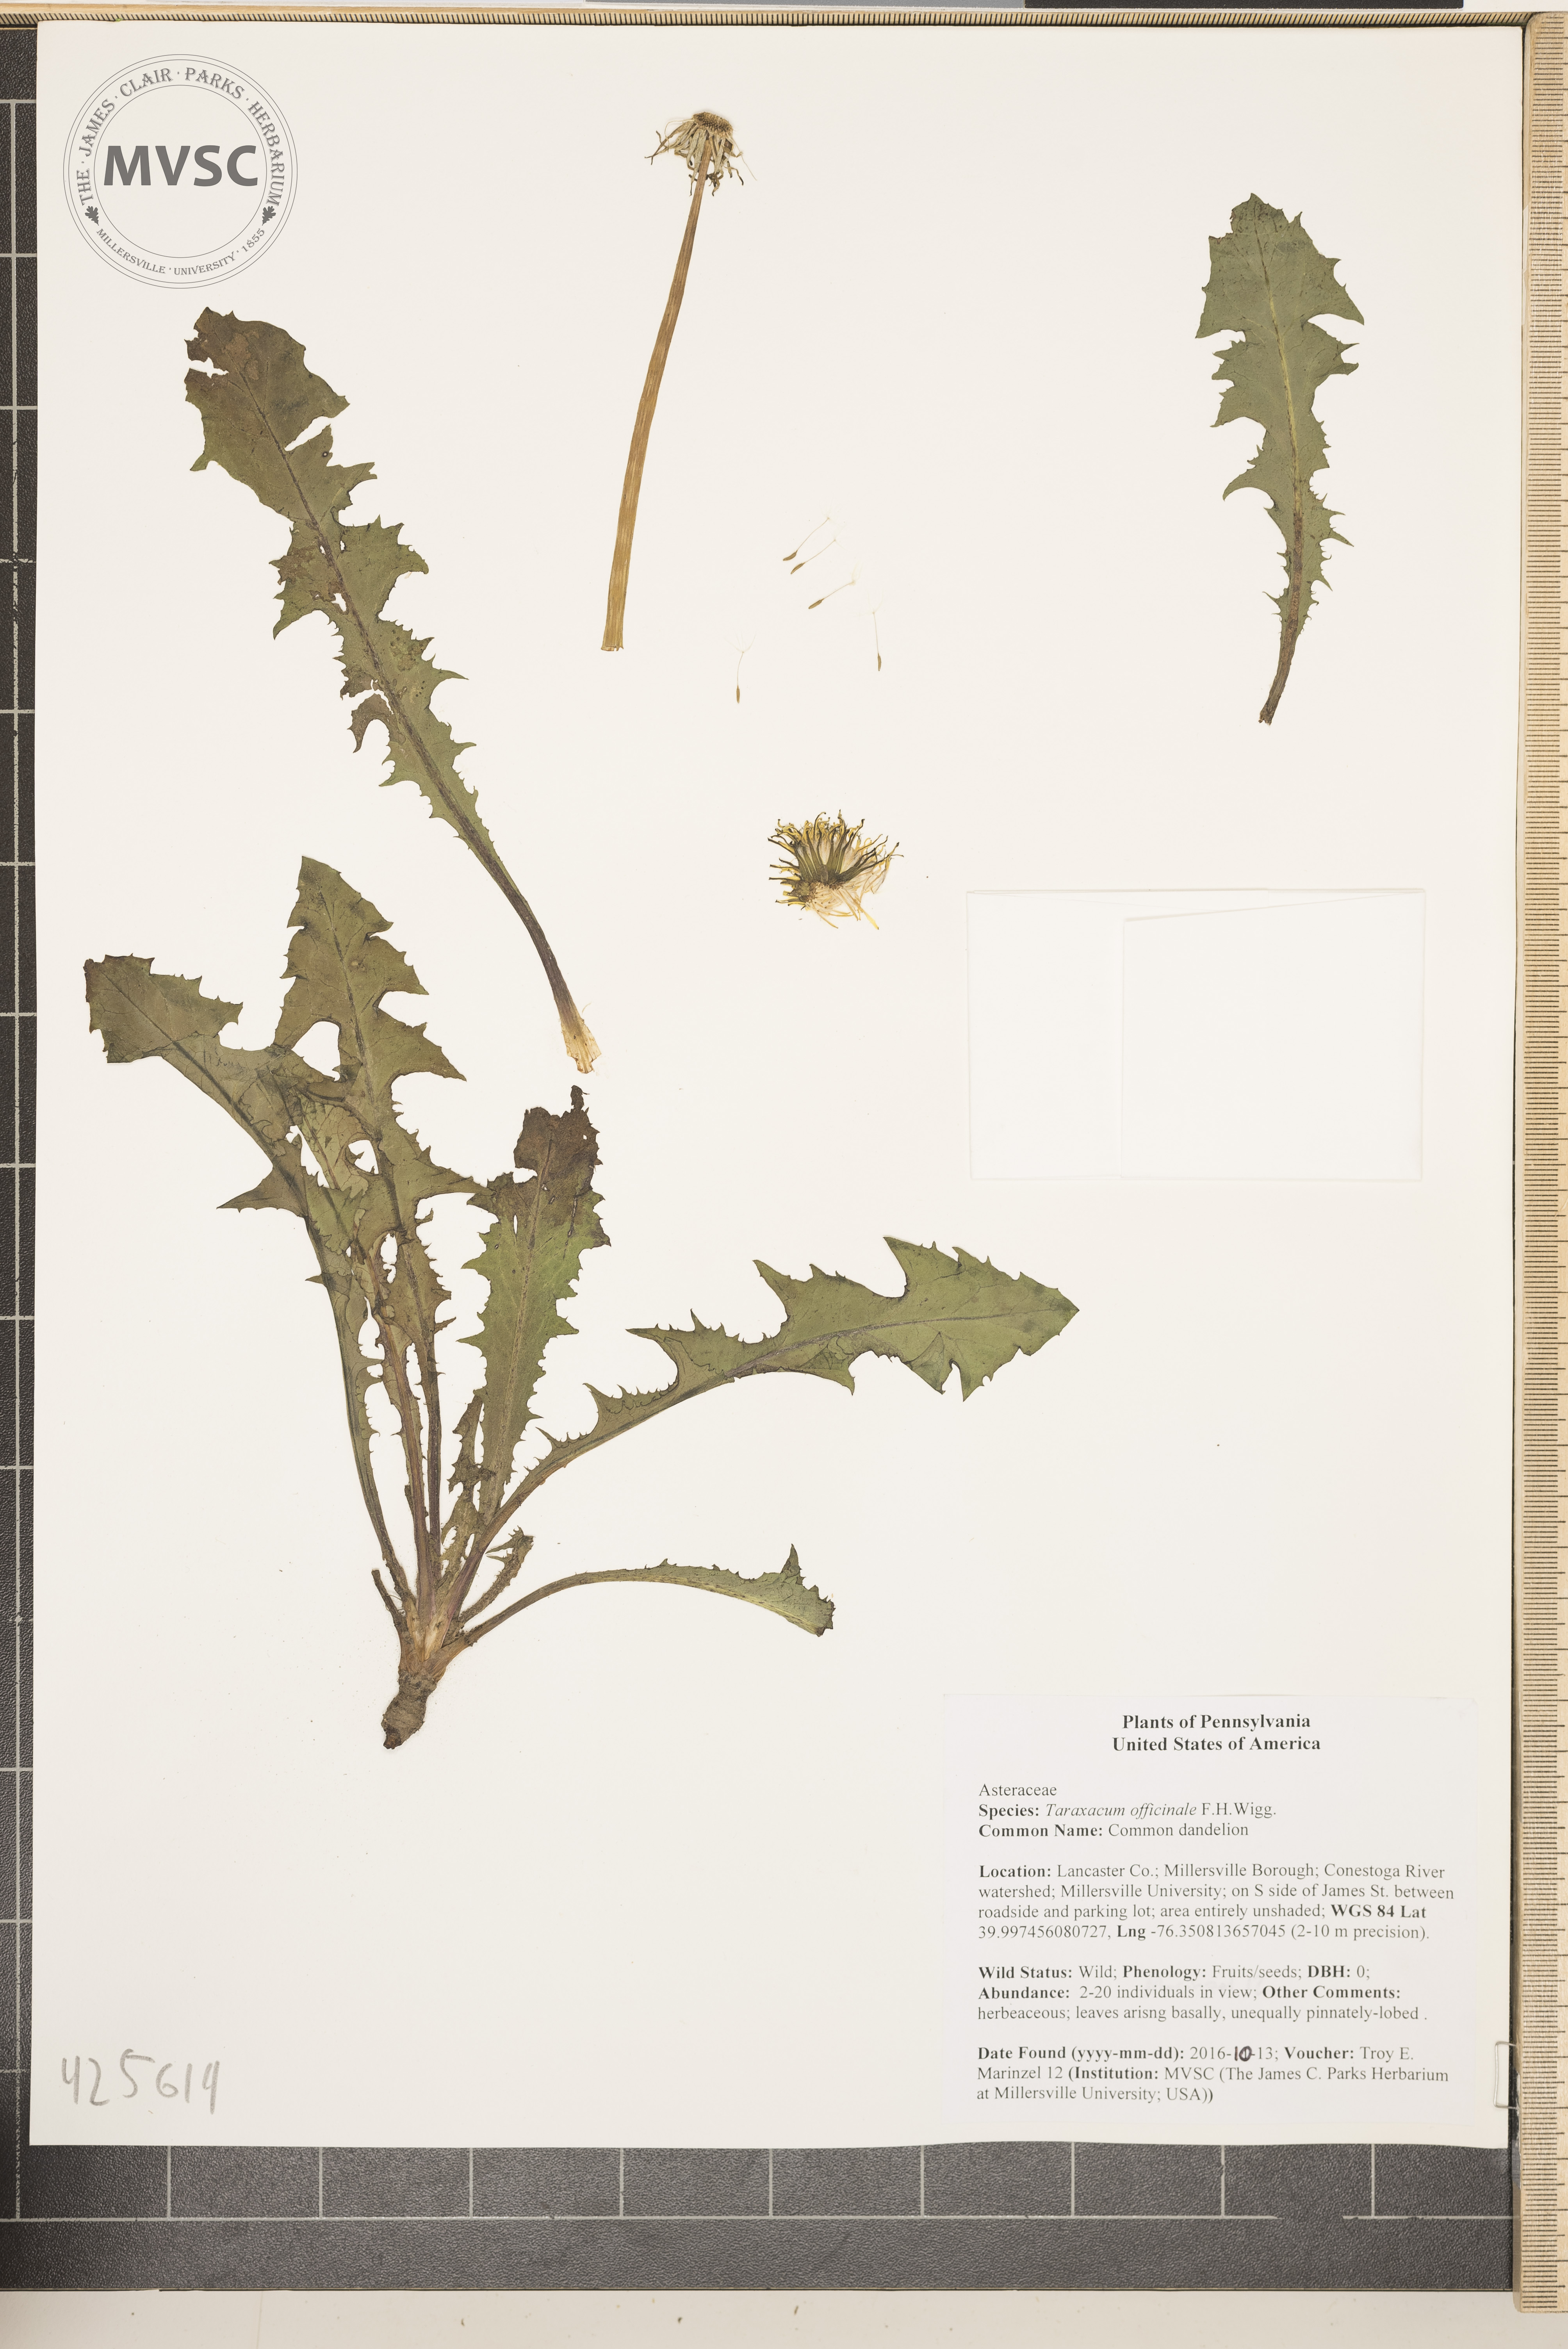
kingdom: Plantae
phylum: Tracheophyta
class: Magnoliopsida
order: Asterales
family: Asteraceae
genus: Taraxacum
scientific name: Taraxacum officinale
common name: Common dandelion
